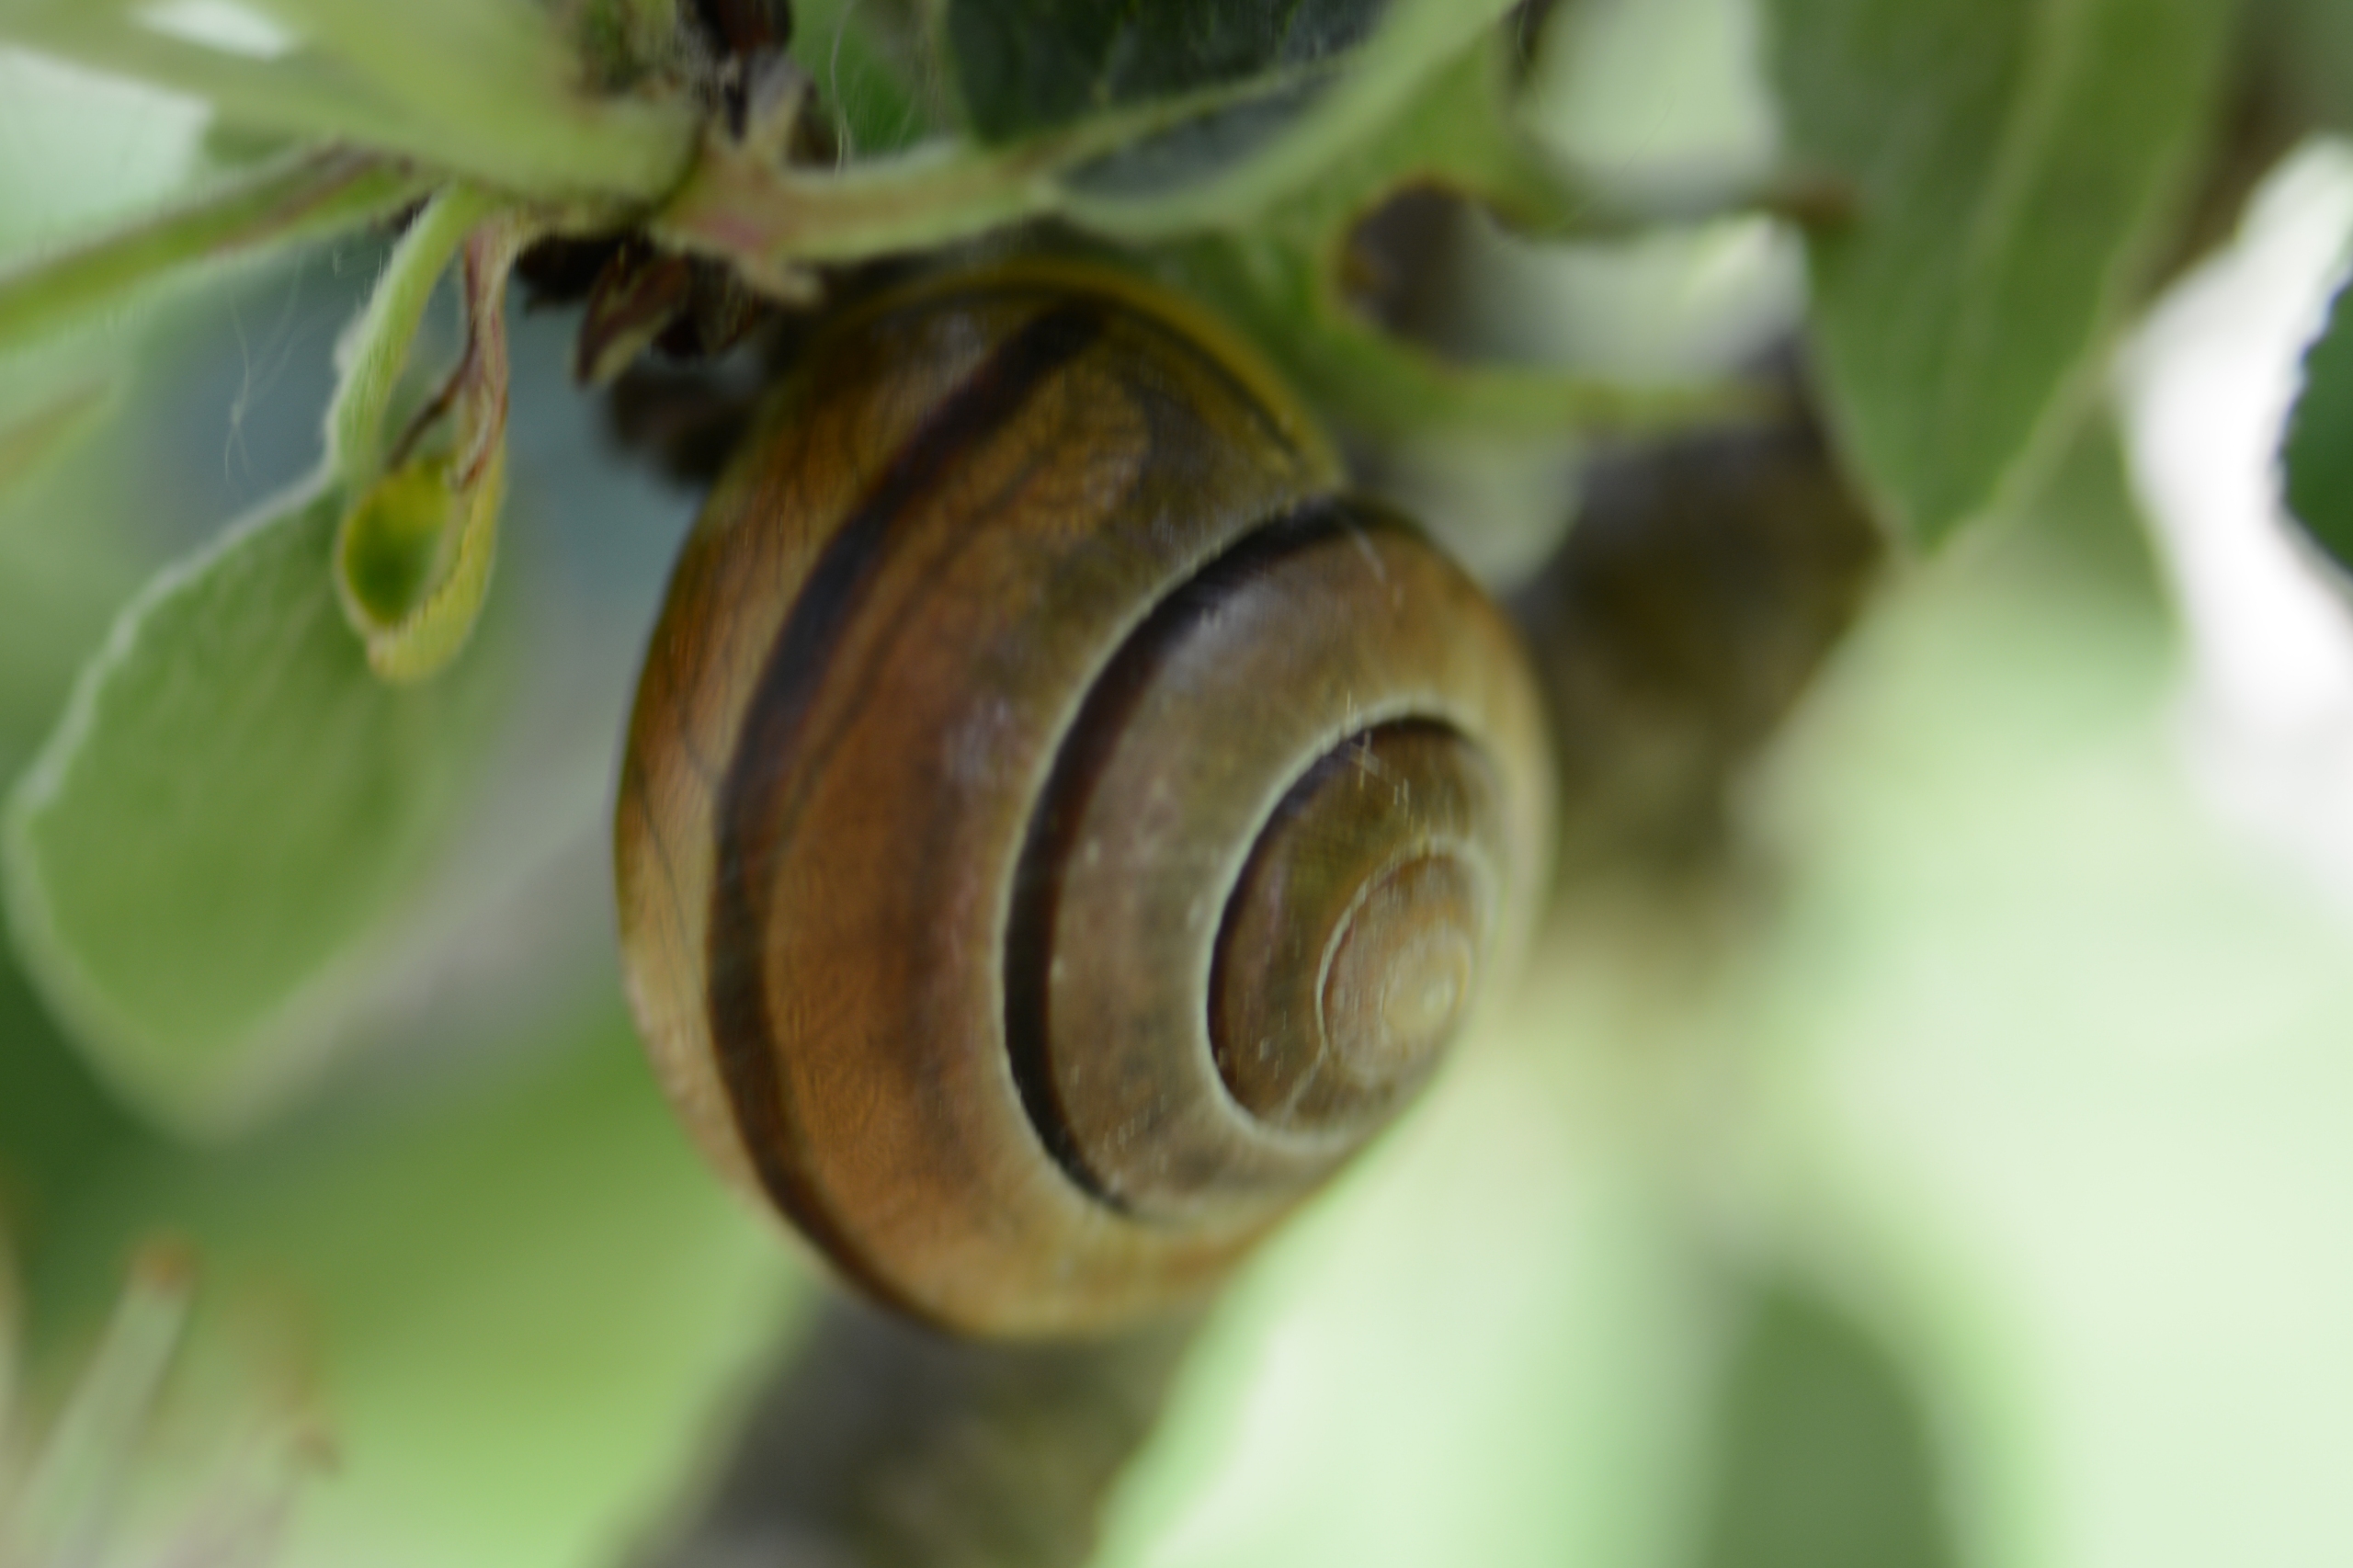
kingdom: Animalia
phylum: Mollusca
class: Gastropoda
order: Stylommatophora
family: Helicidae
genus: Cepaea
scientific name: Cepaea hortensis
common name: Havesnegl
